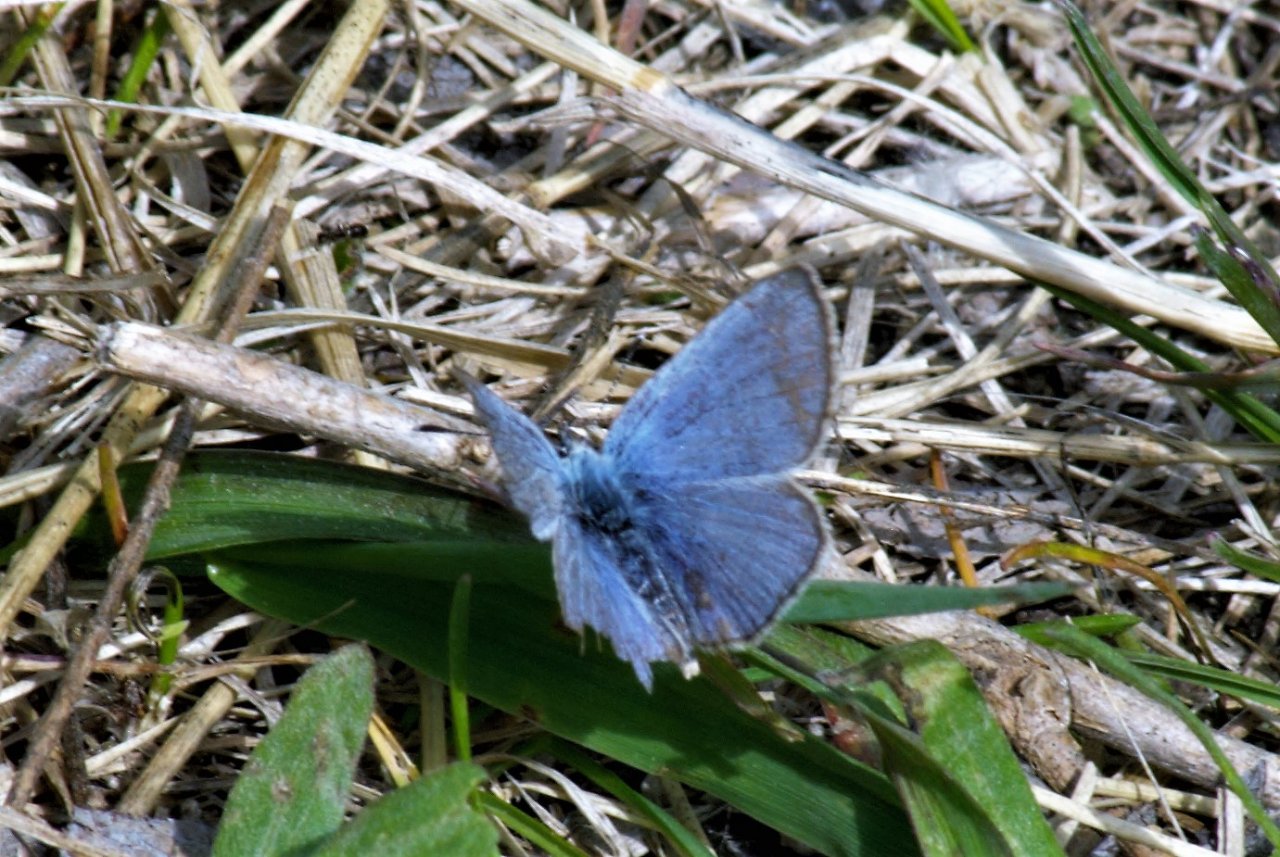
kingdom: Animalia
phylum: Arthropoda
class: Insecta
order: Lepidoptera
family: Lycaenidae
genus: Glaucopsyche
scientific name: Glaucopsyche lygdamus
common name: Silvery Blue
